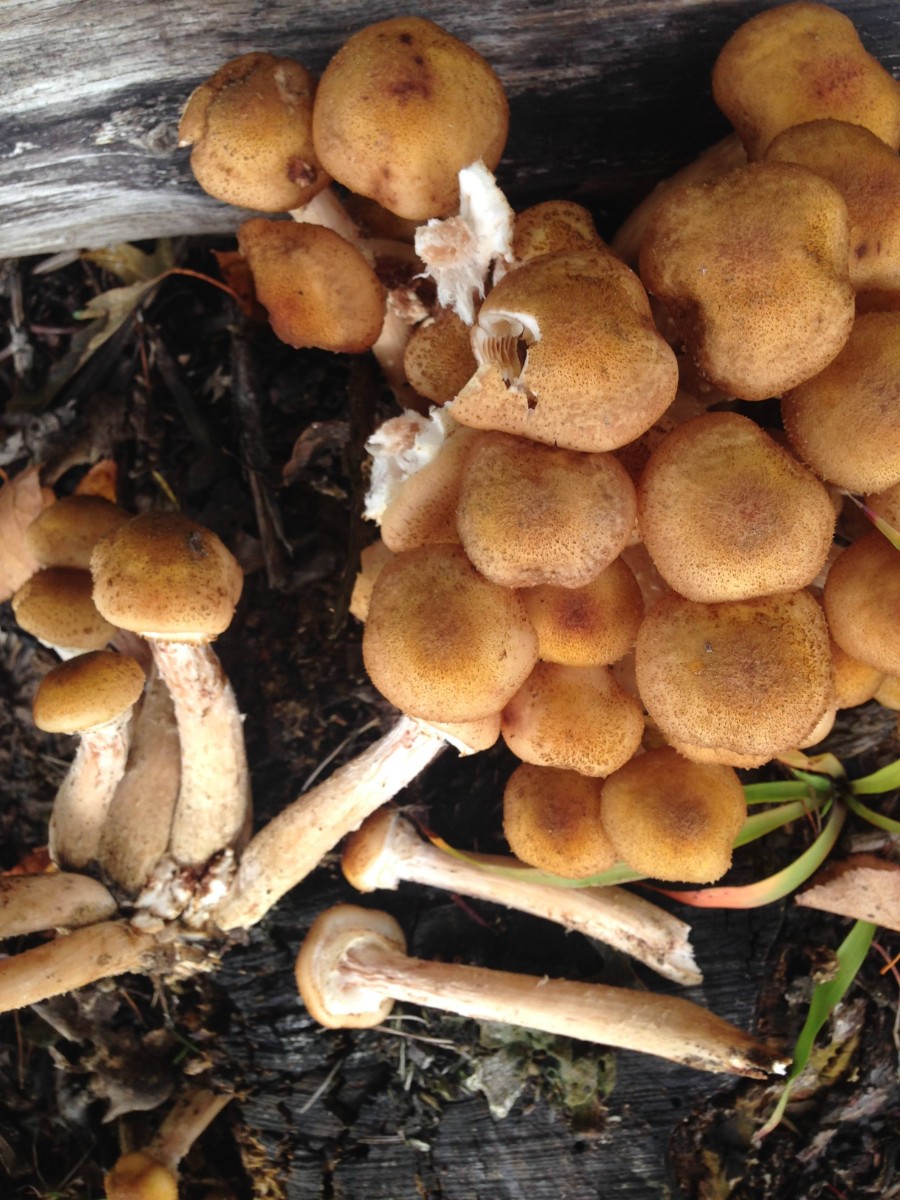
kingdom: Fungi
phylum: Basidiomycota
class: Agaricomycetes
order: Agaricales
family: Physalacriaceae
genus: Armillaria
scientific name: Armillaria mellea
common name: ægte honningsvamp
